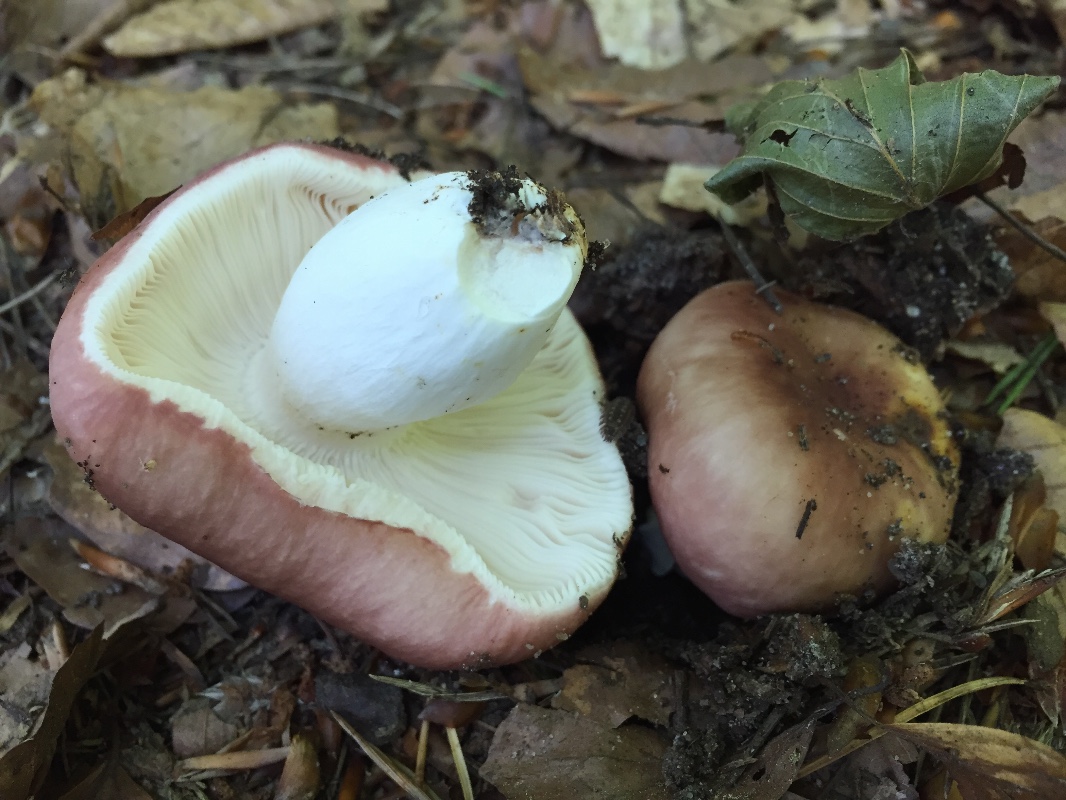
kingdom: Fungi
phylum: Basidiomycota
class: Agaricomycetes
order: Russulales
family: Russulaceae
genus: Russula
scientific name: Russula vesca
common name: spiselig skørhat
